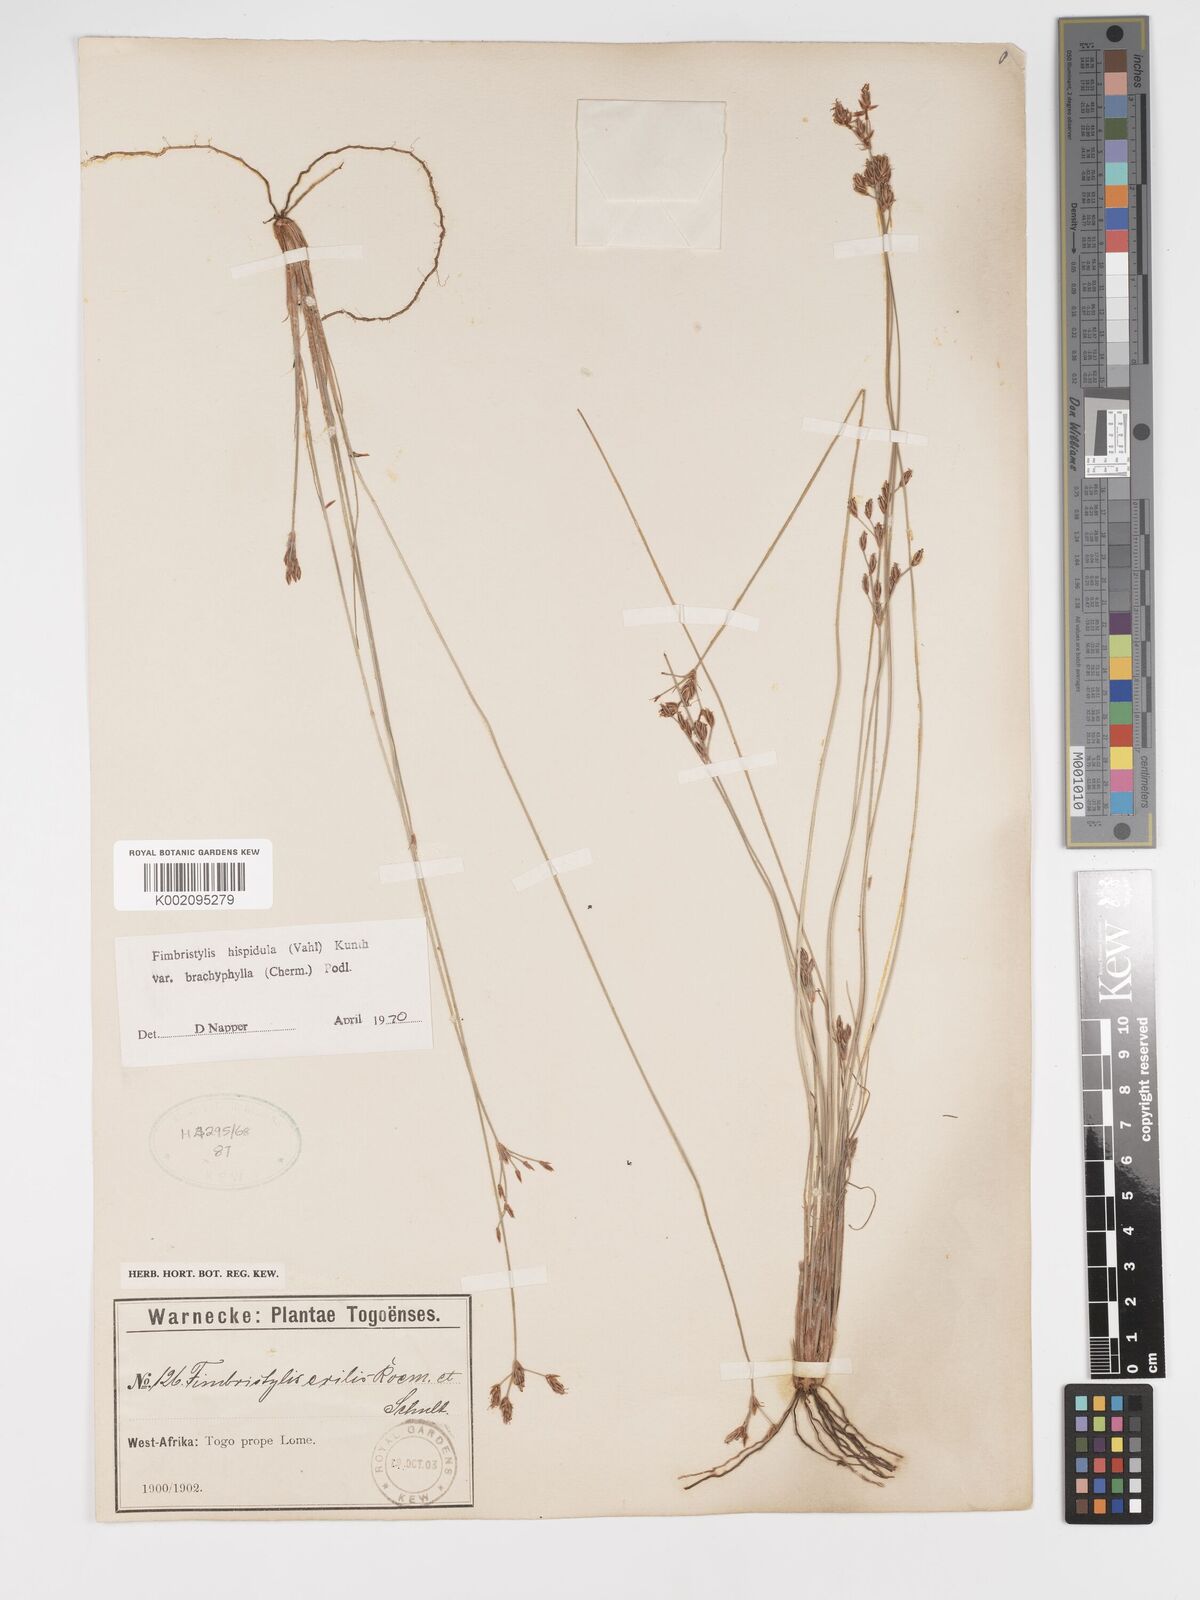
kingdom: Plantae
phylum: Tracheophyta
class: Liliopsida
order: Poales
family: Cyperaceae
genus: Bulbostylis
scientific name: Bulbostylis hispidula
